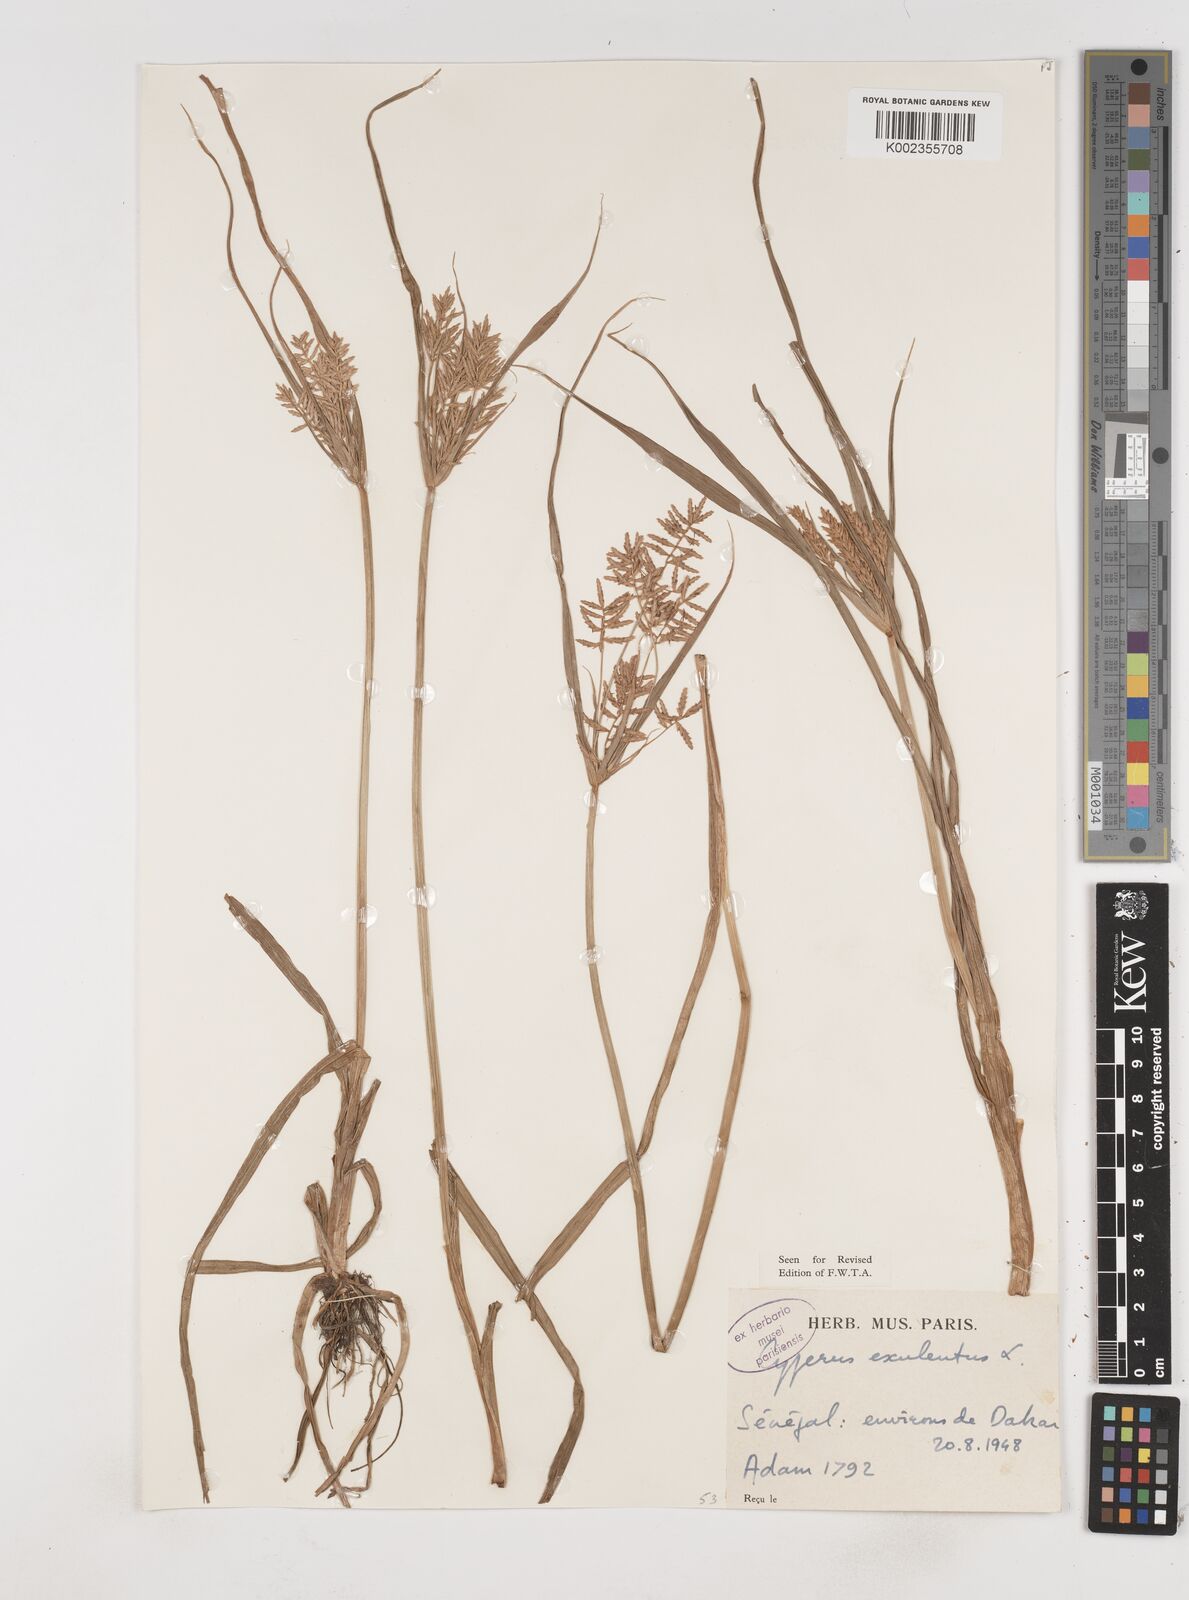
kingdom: Plantae
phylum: Tracheophyta
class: Liliopsida
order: Poales
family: Cyperaceae
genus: Cyperus
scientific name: Cyperus esculentus
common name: Yellow nutsedge
